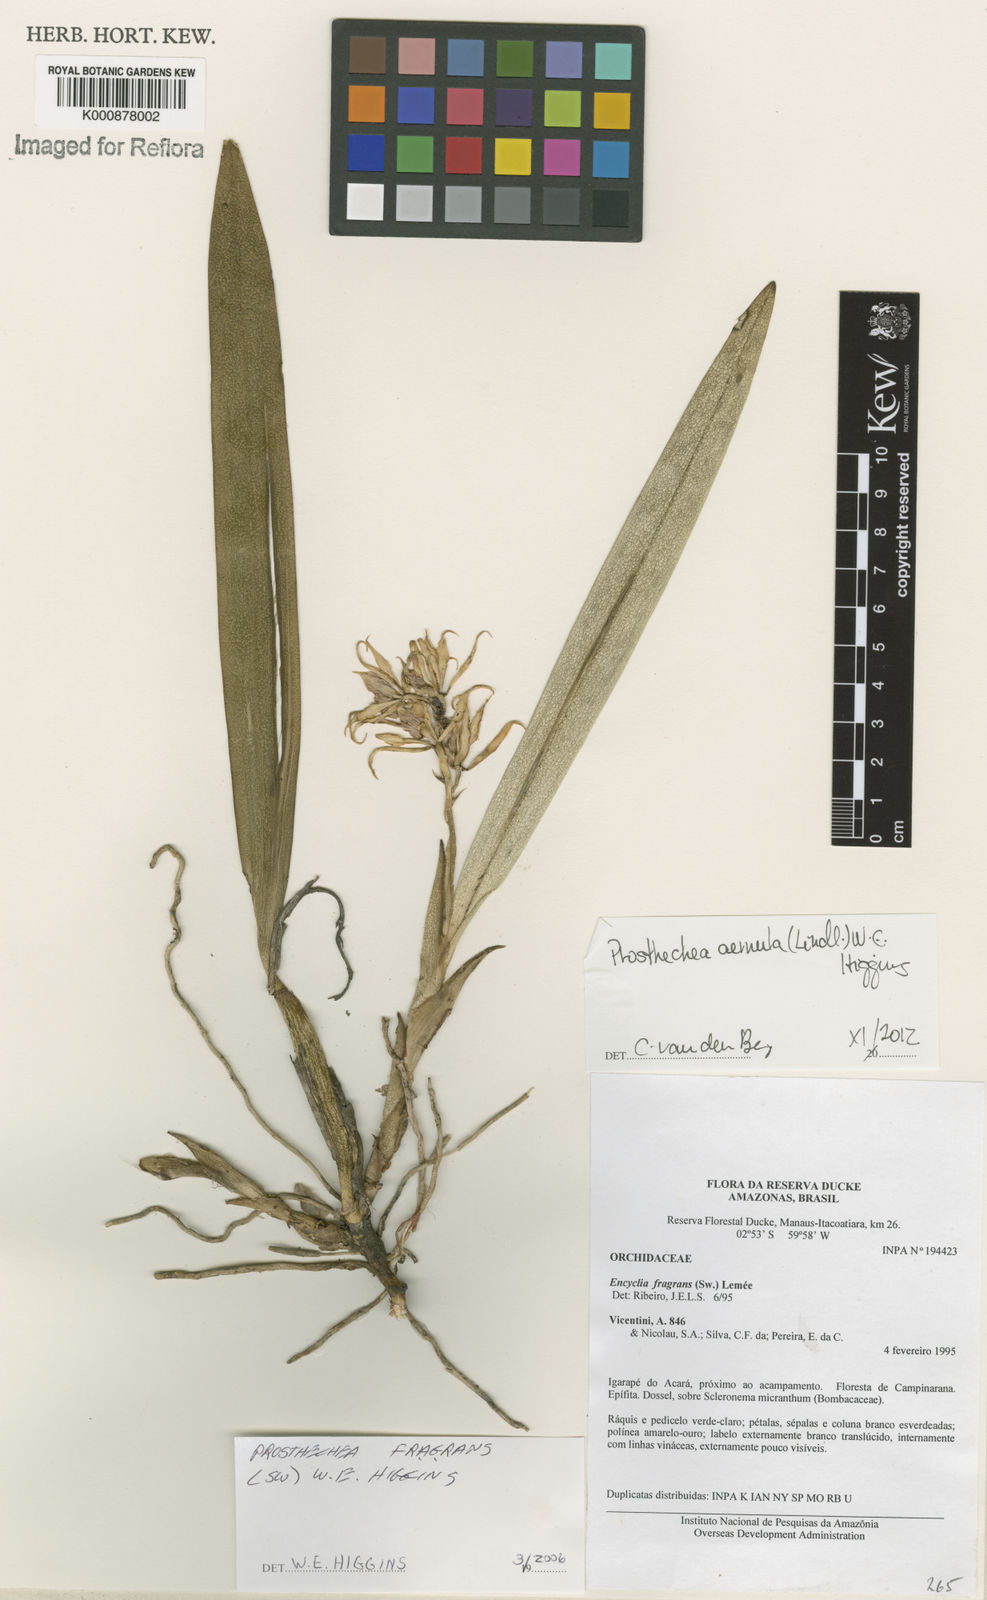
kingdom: Plantae
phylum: Tracheophyta
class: Liliopsida
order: Asparagales
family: Orchidaceae
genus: Prosthechea
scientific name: Prosthechea aemula
